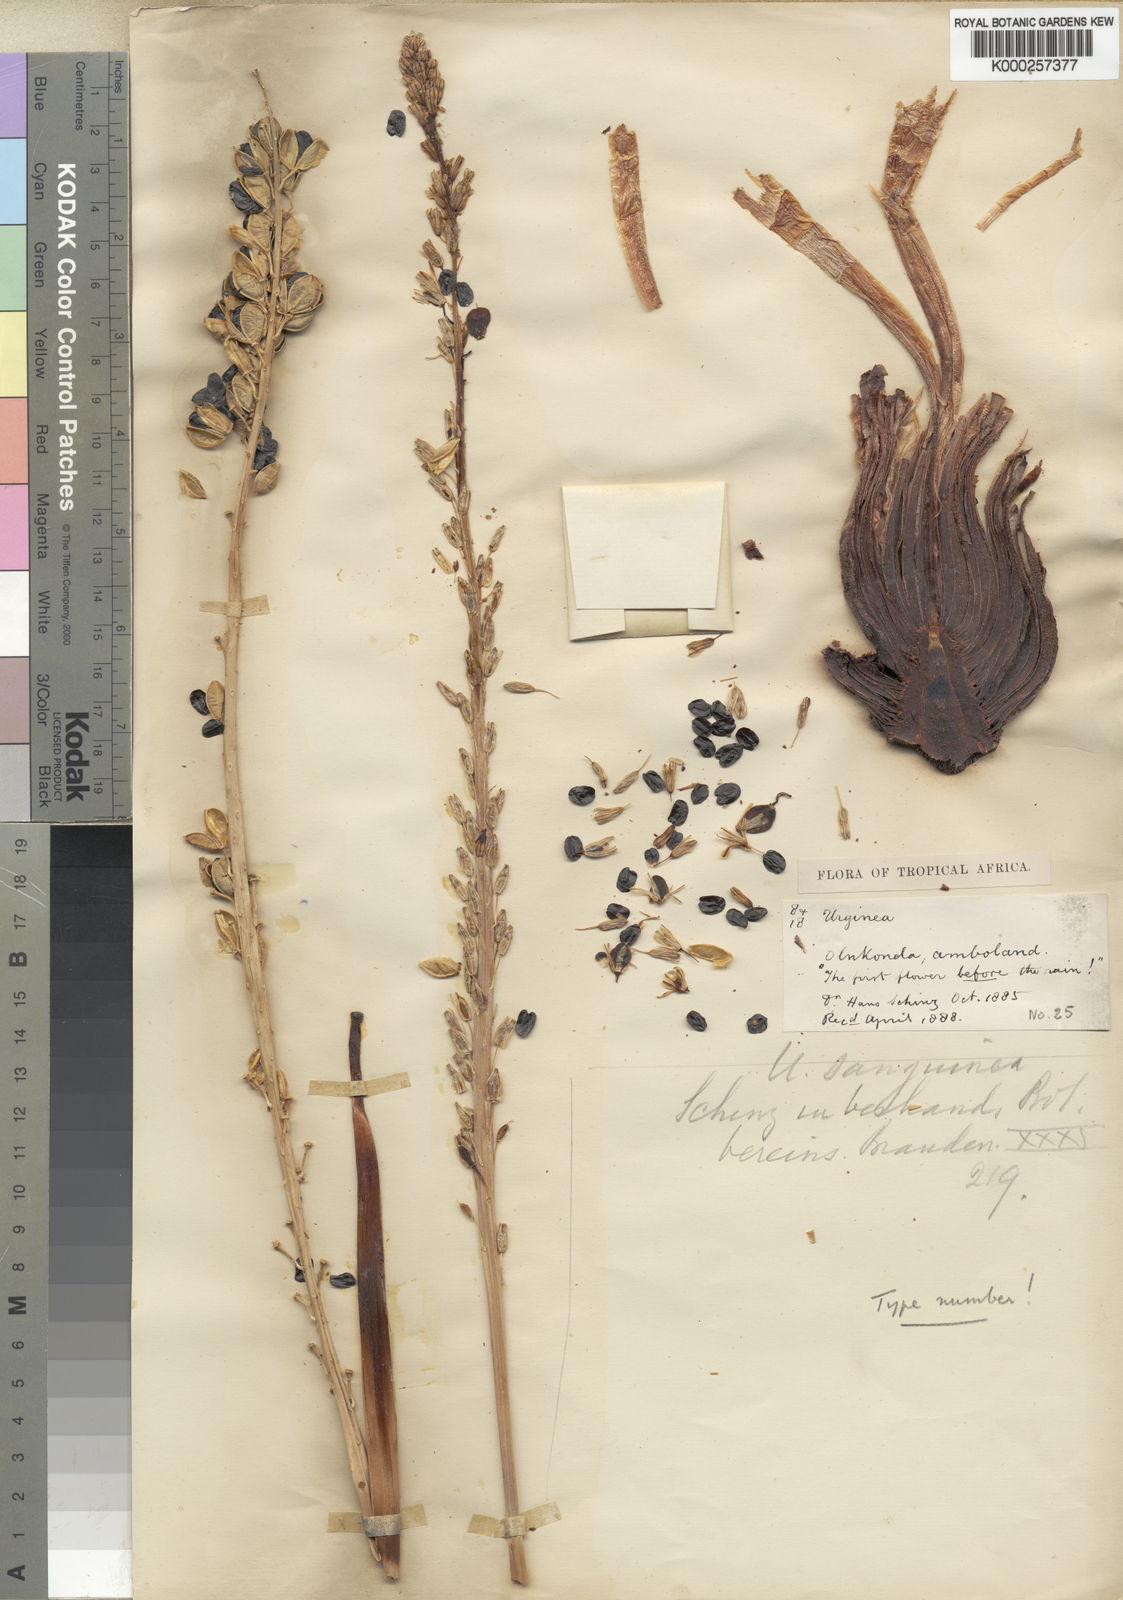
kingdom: Plantae
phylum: Tracheophyta
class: Liliopsida
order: Asparagales
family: Asparagaceae
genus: Drimia
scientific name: Drimia sanguinea
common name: Transvaal slangkop
